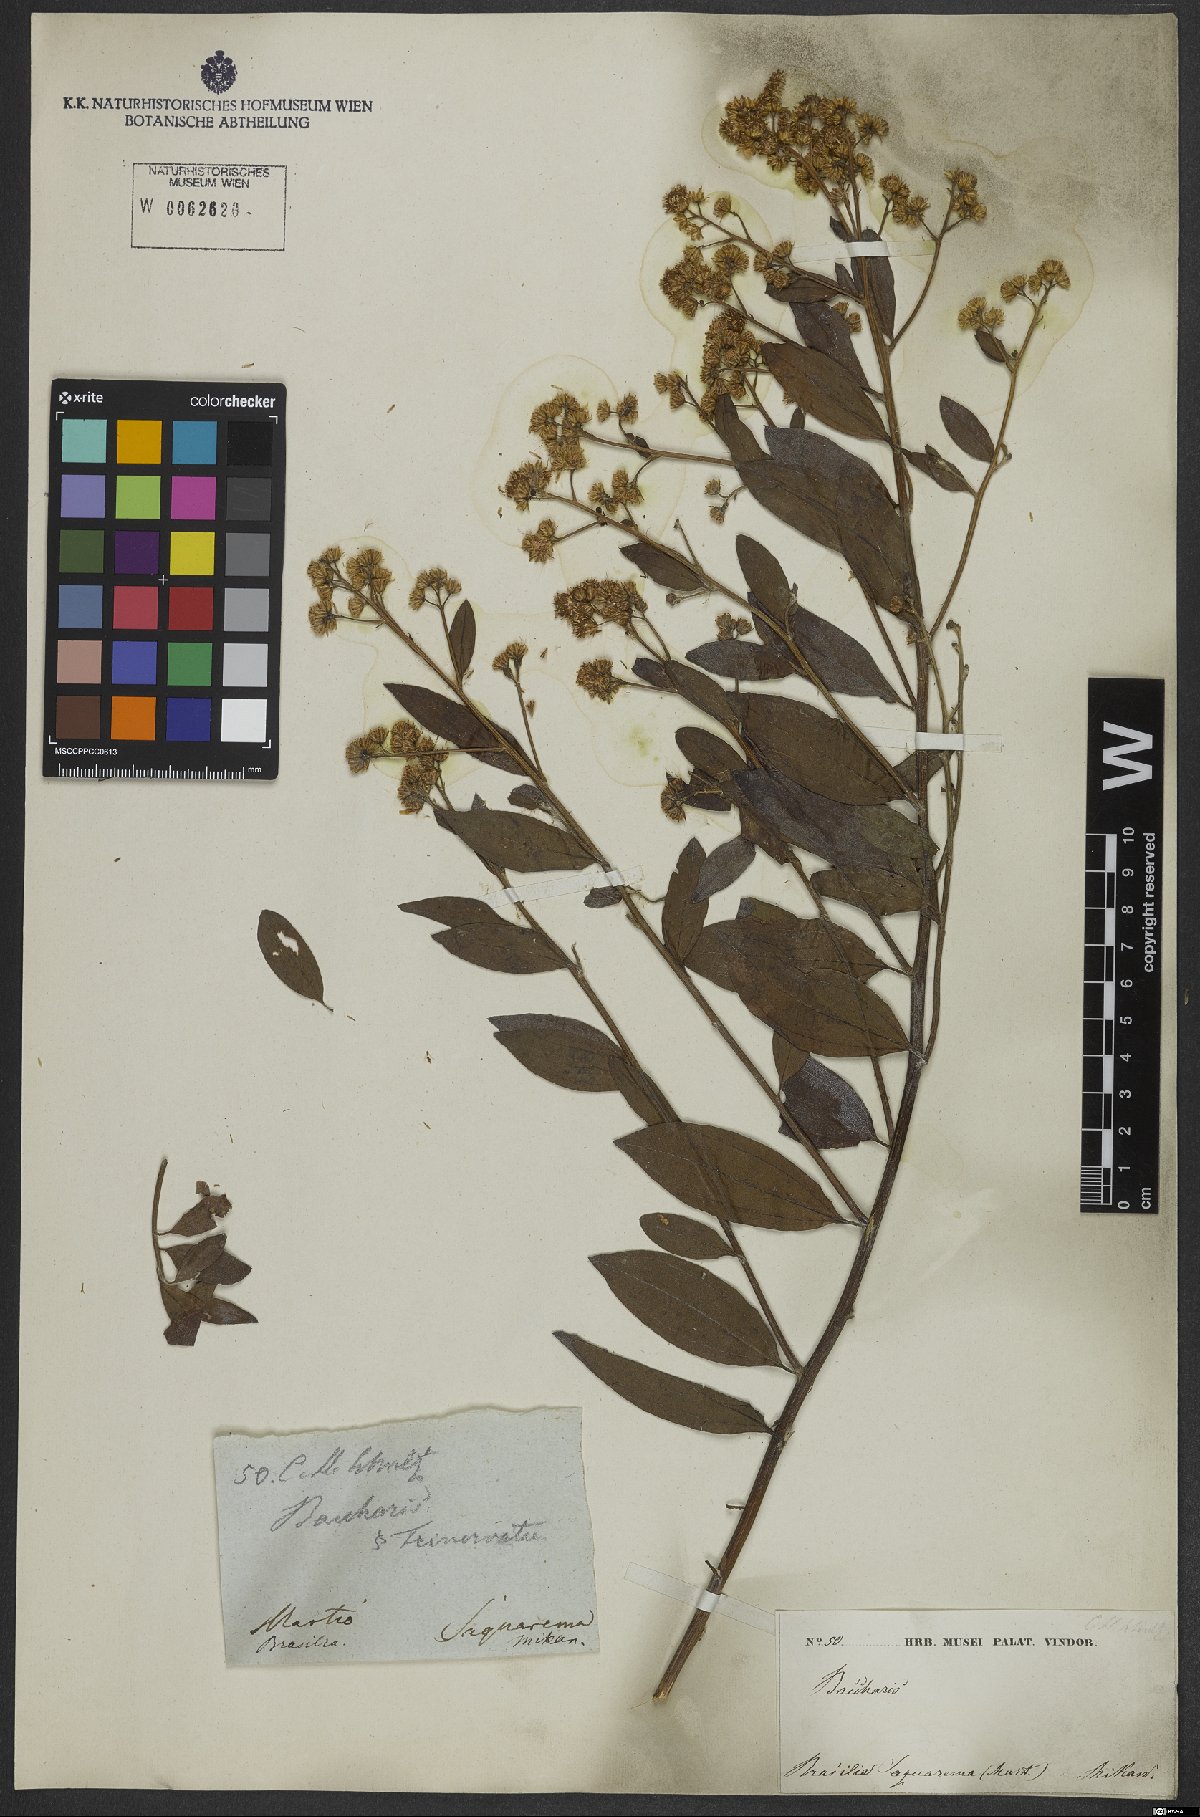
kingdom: Plantae
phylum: Tracheophyta
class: Magnoliopsida
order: Asterales
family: Asteraceae
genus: Baccharis
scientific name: Baccharis trinervis
